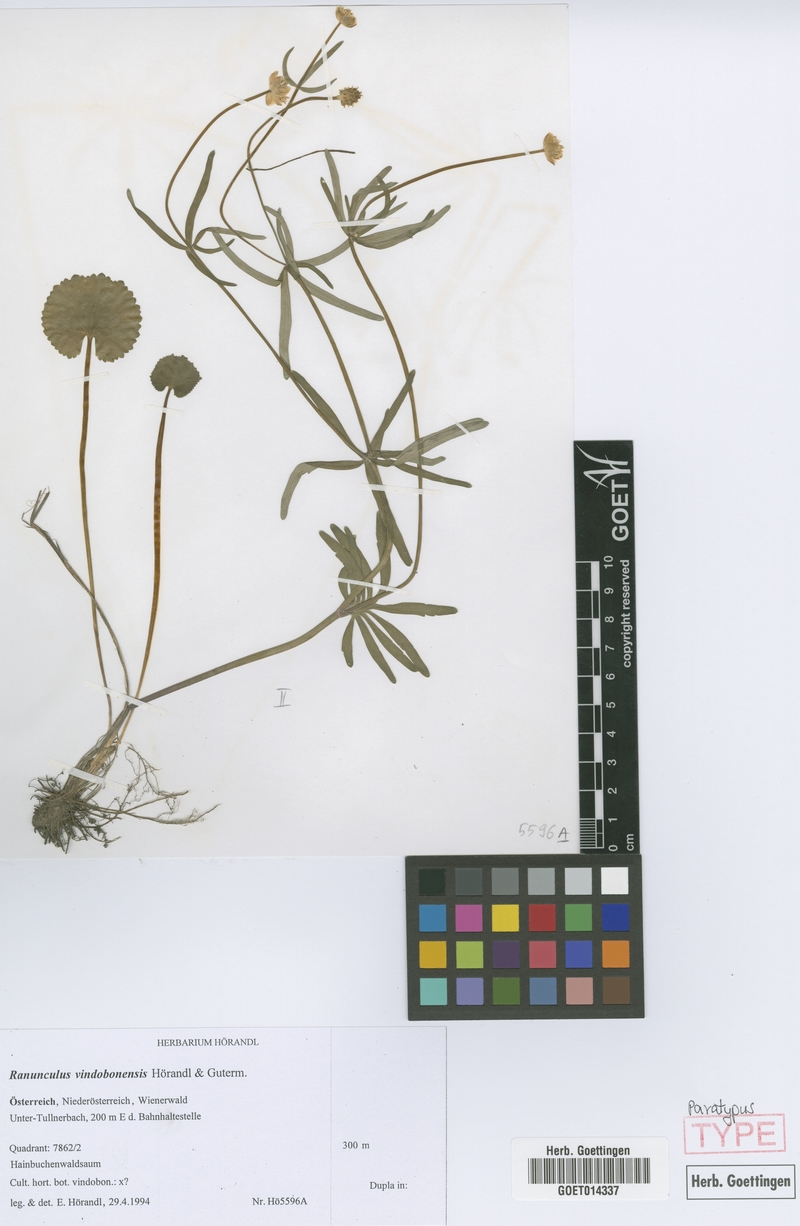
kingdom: Plantae
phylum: Tracheophyta
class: Magnoliopsida
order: Ranunculales
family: Ranunculaceae
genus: Ranunculus
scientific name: Ranunculus vindobonensis
